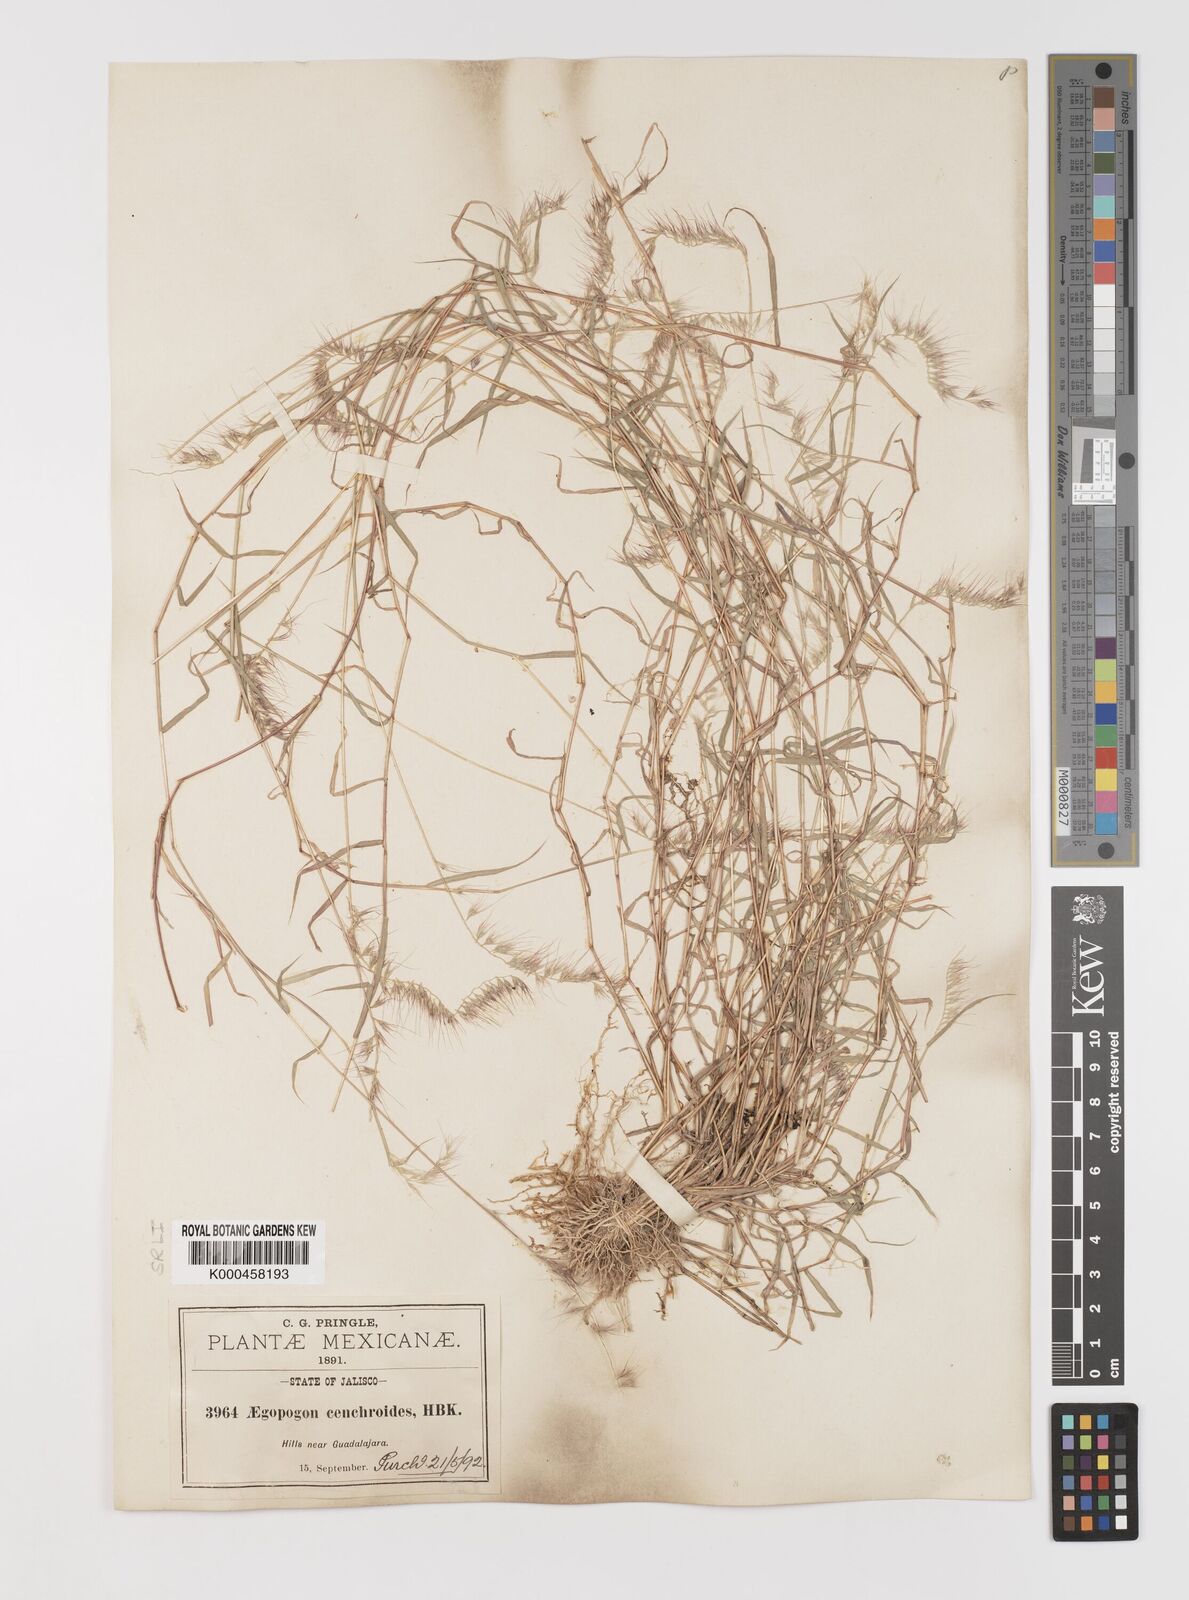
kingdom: Plantae
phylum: Tracheophyta
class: Liliopsida
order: Poales
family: Poaceae
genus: Muhlenbergia
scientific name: Muhlenbergia
